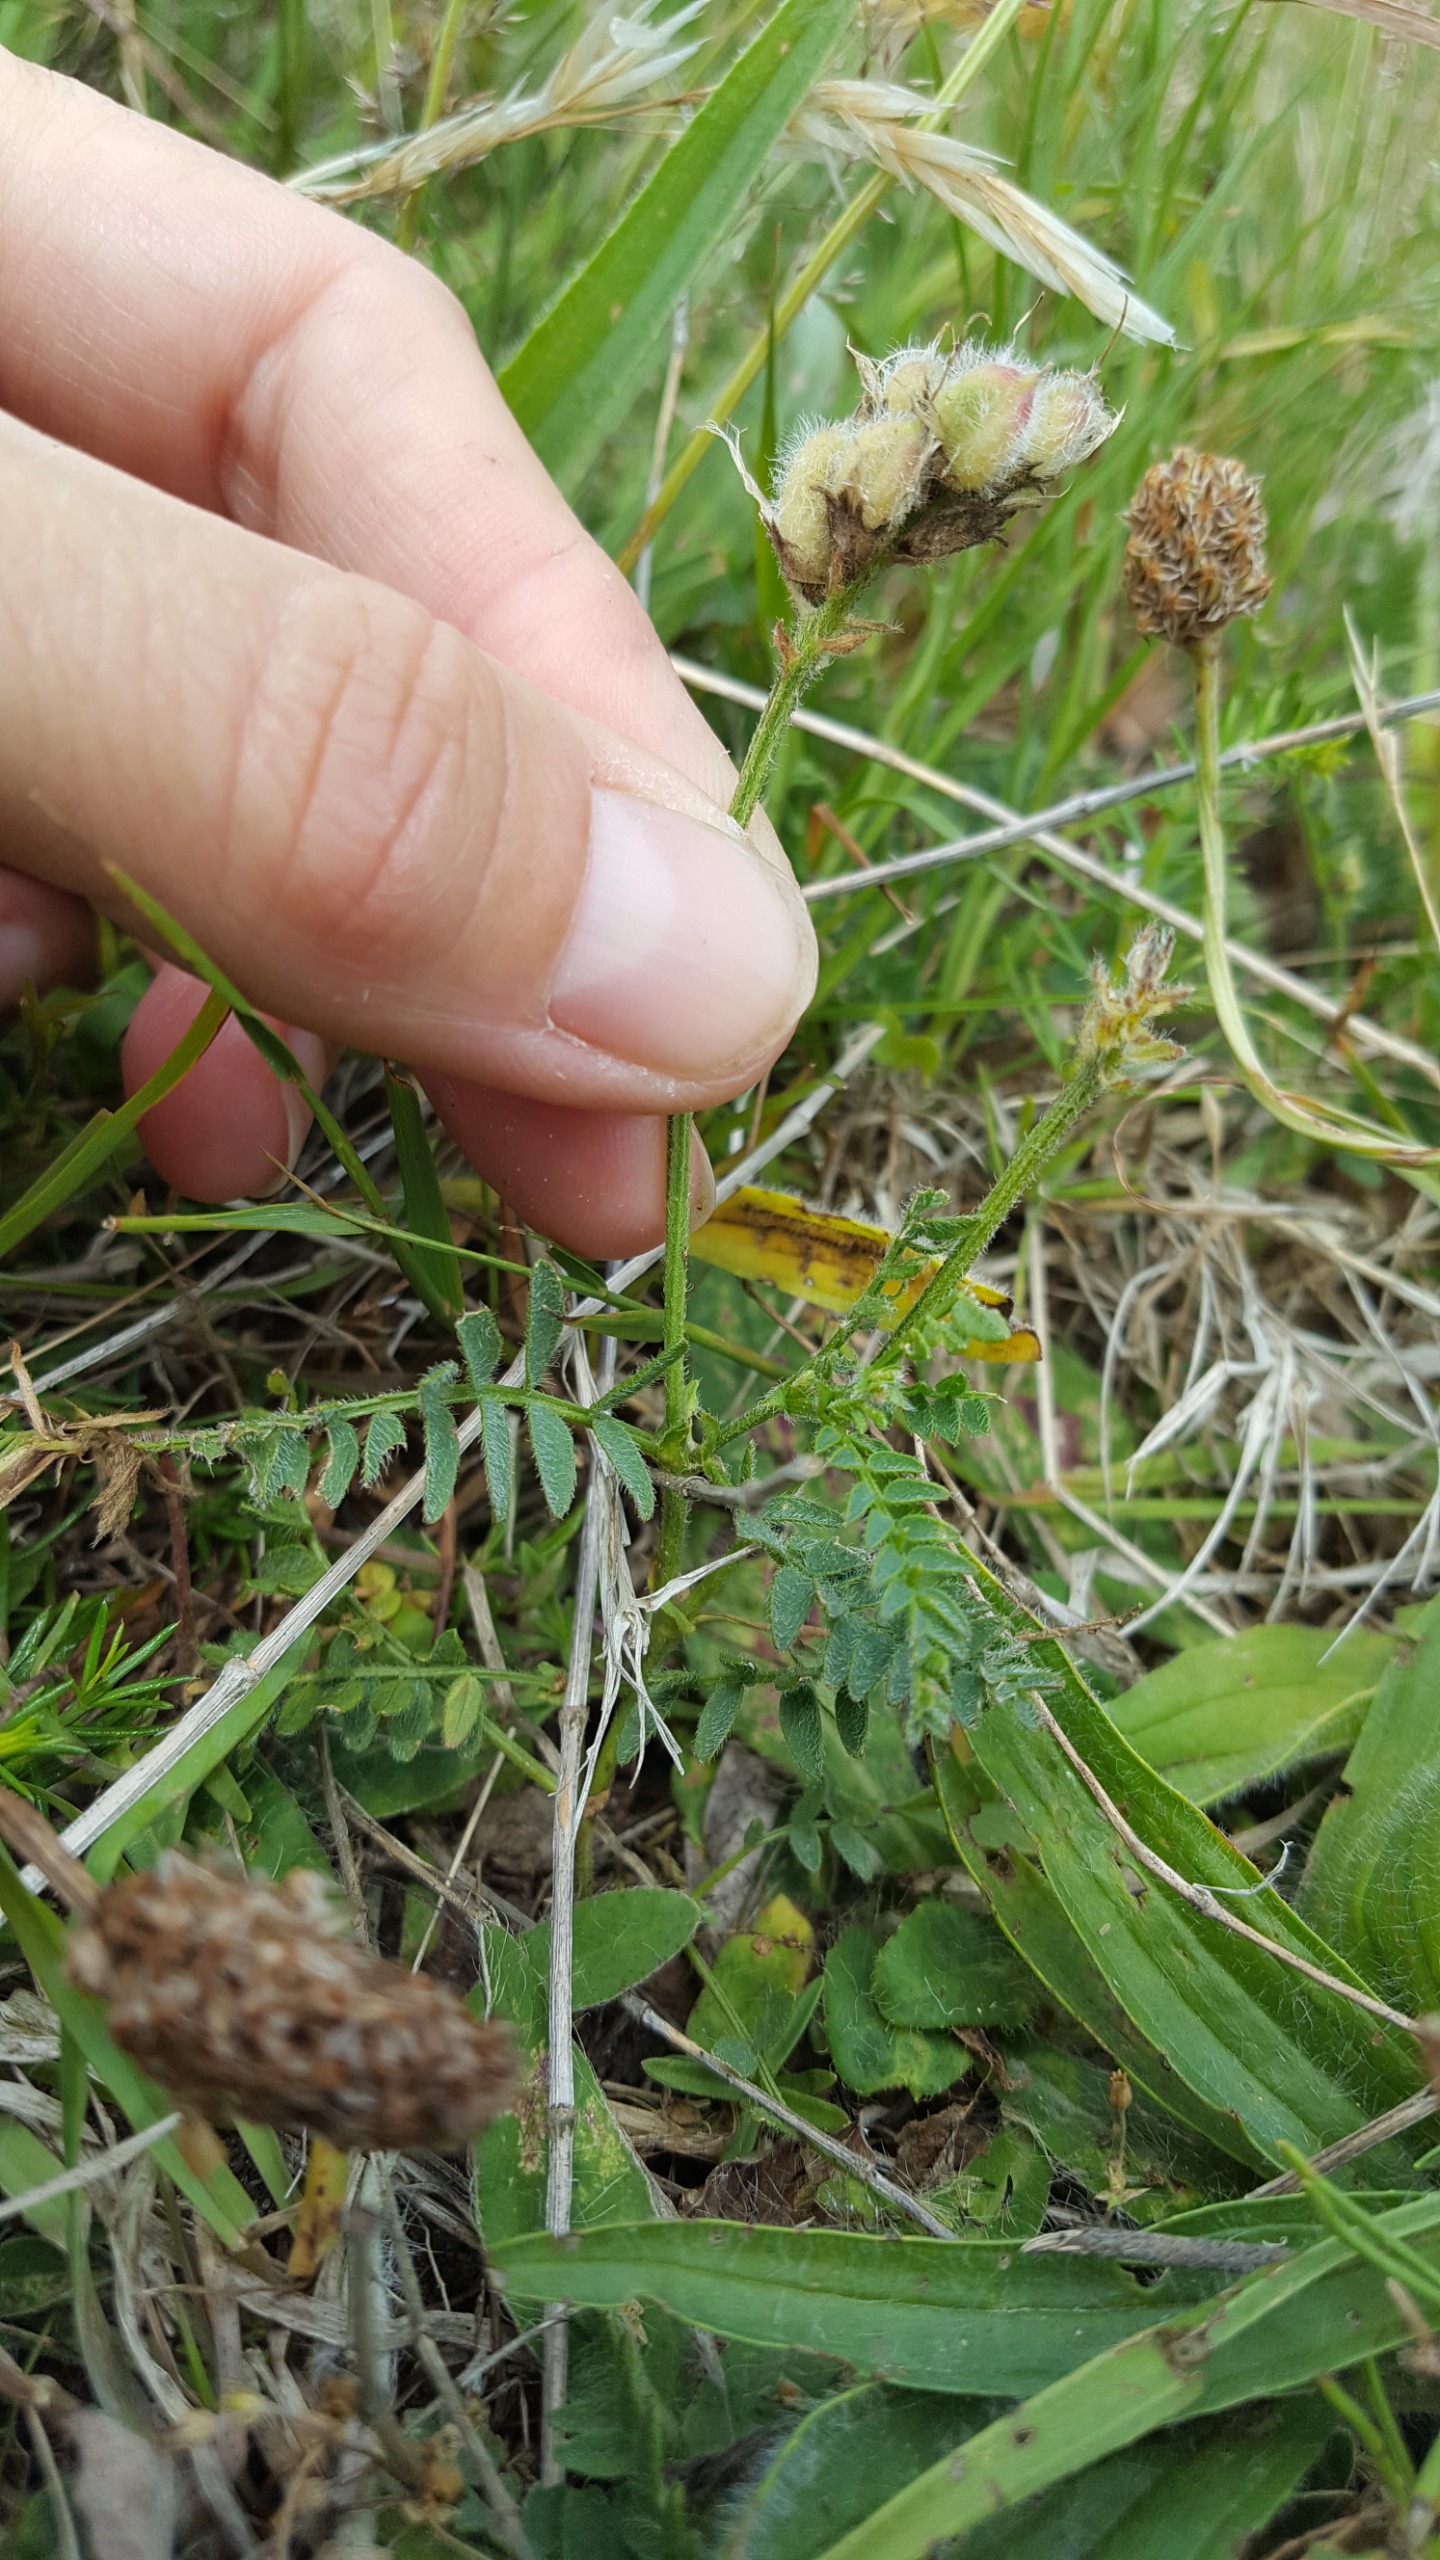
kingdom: Plantae
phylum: Tracheophyta
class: Magnoliopsida
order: Fabales
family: Fabaceae
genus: Astragalus
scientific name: Astragalus danicus
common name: Dansk astragel
